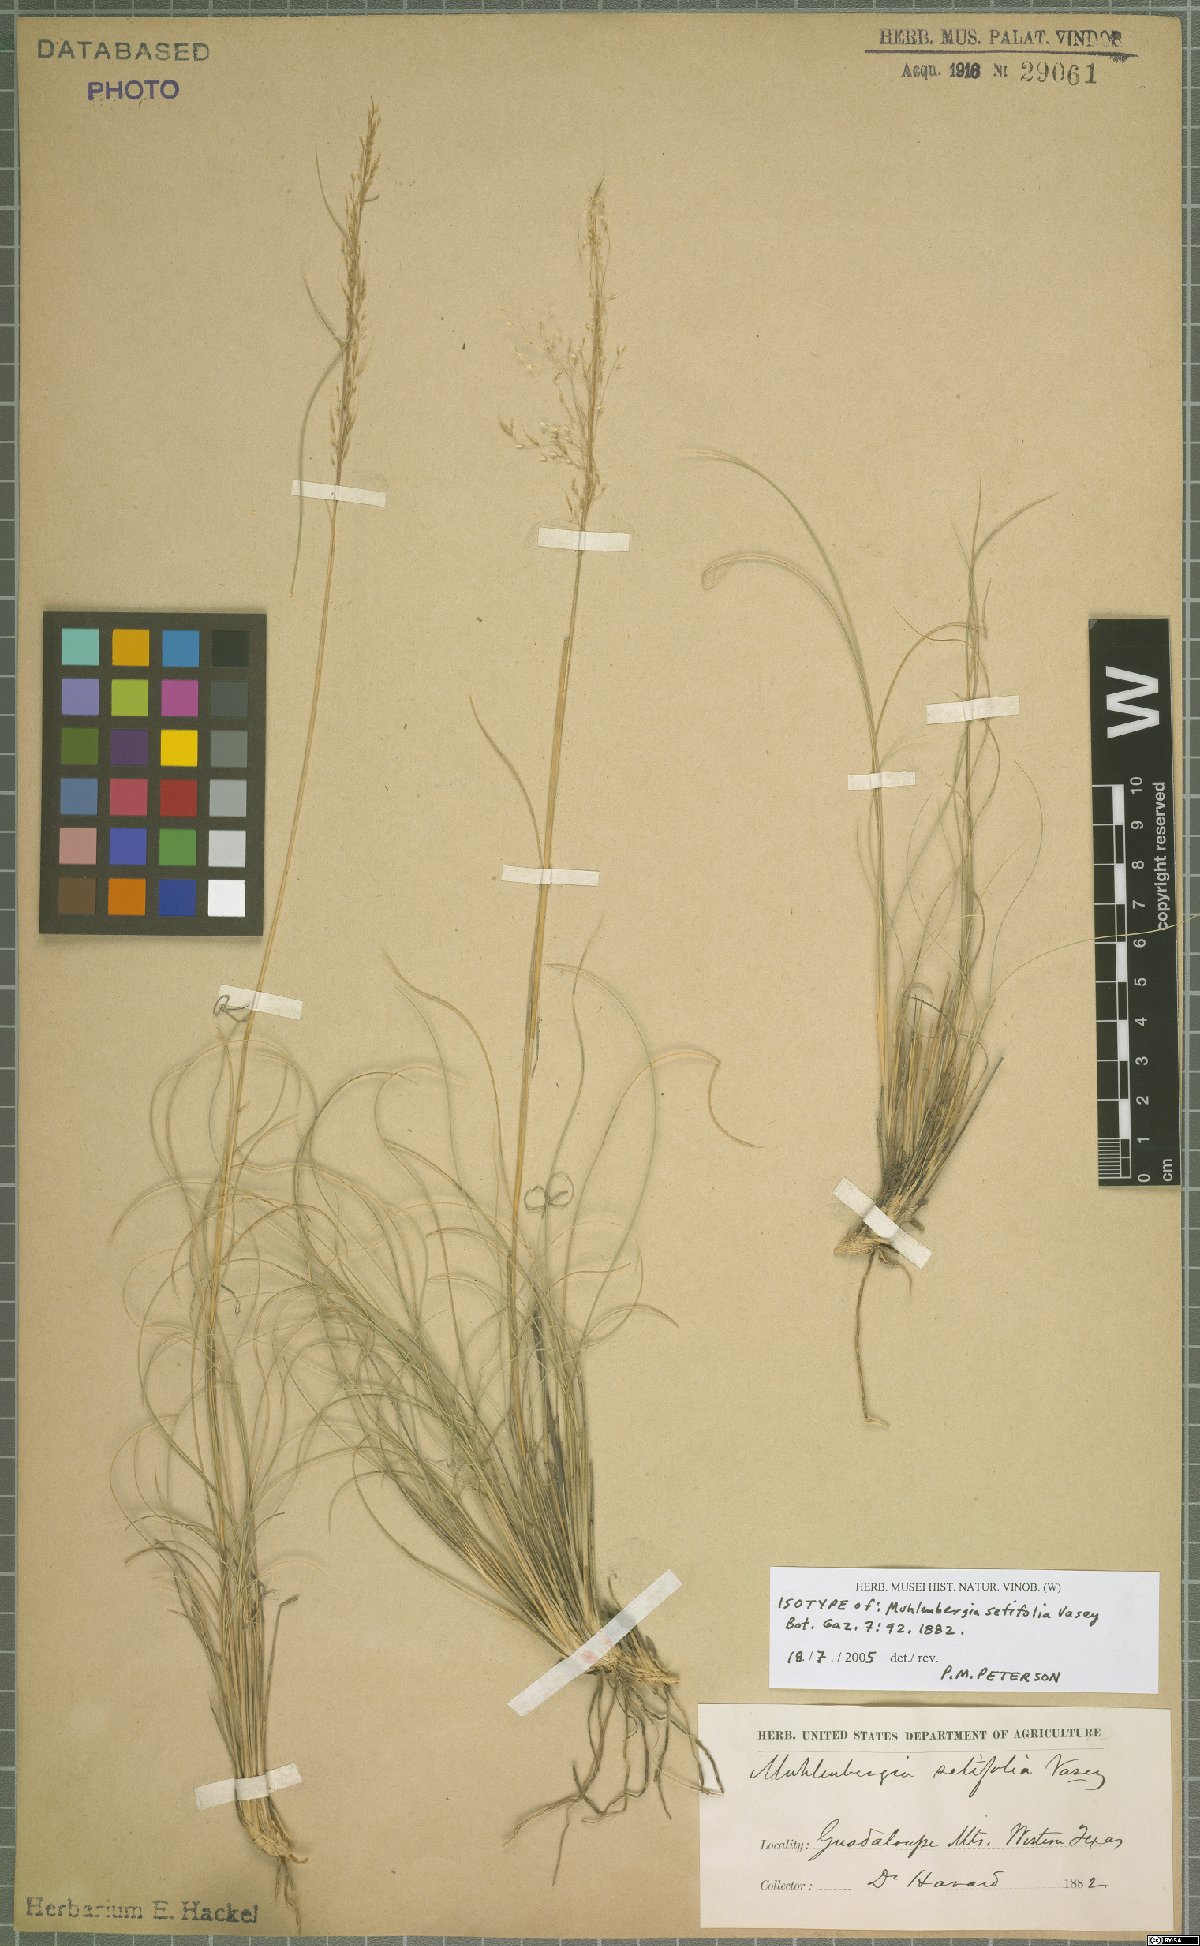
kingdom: Plantae
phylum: Tracheophyta
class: Liliopsida
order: Poales
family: Poaceae
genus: Muhlenbergia
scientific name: Muhlenbergia setifolia
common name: Curly-leaf muhly
